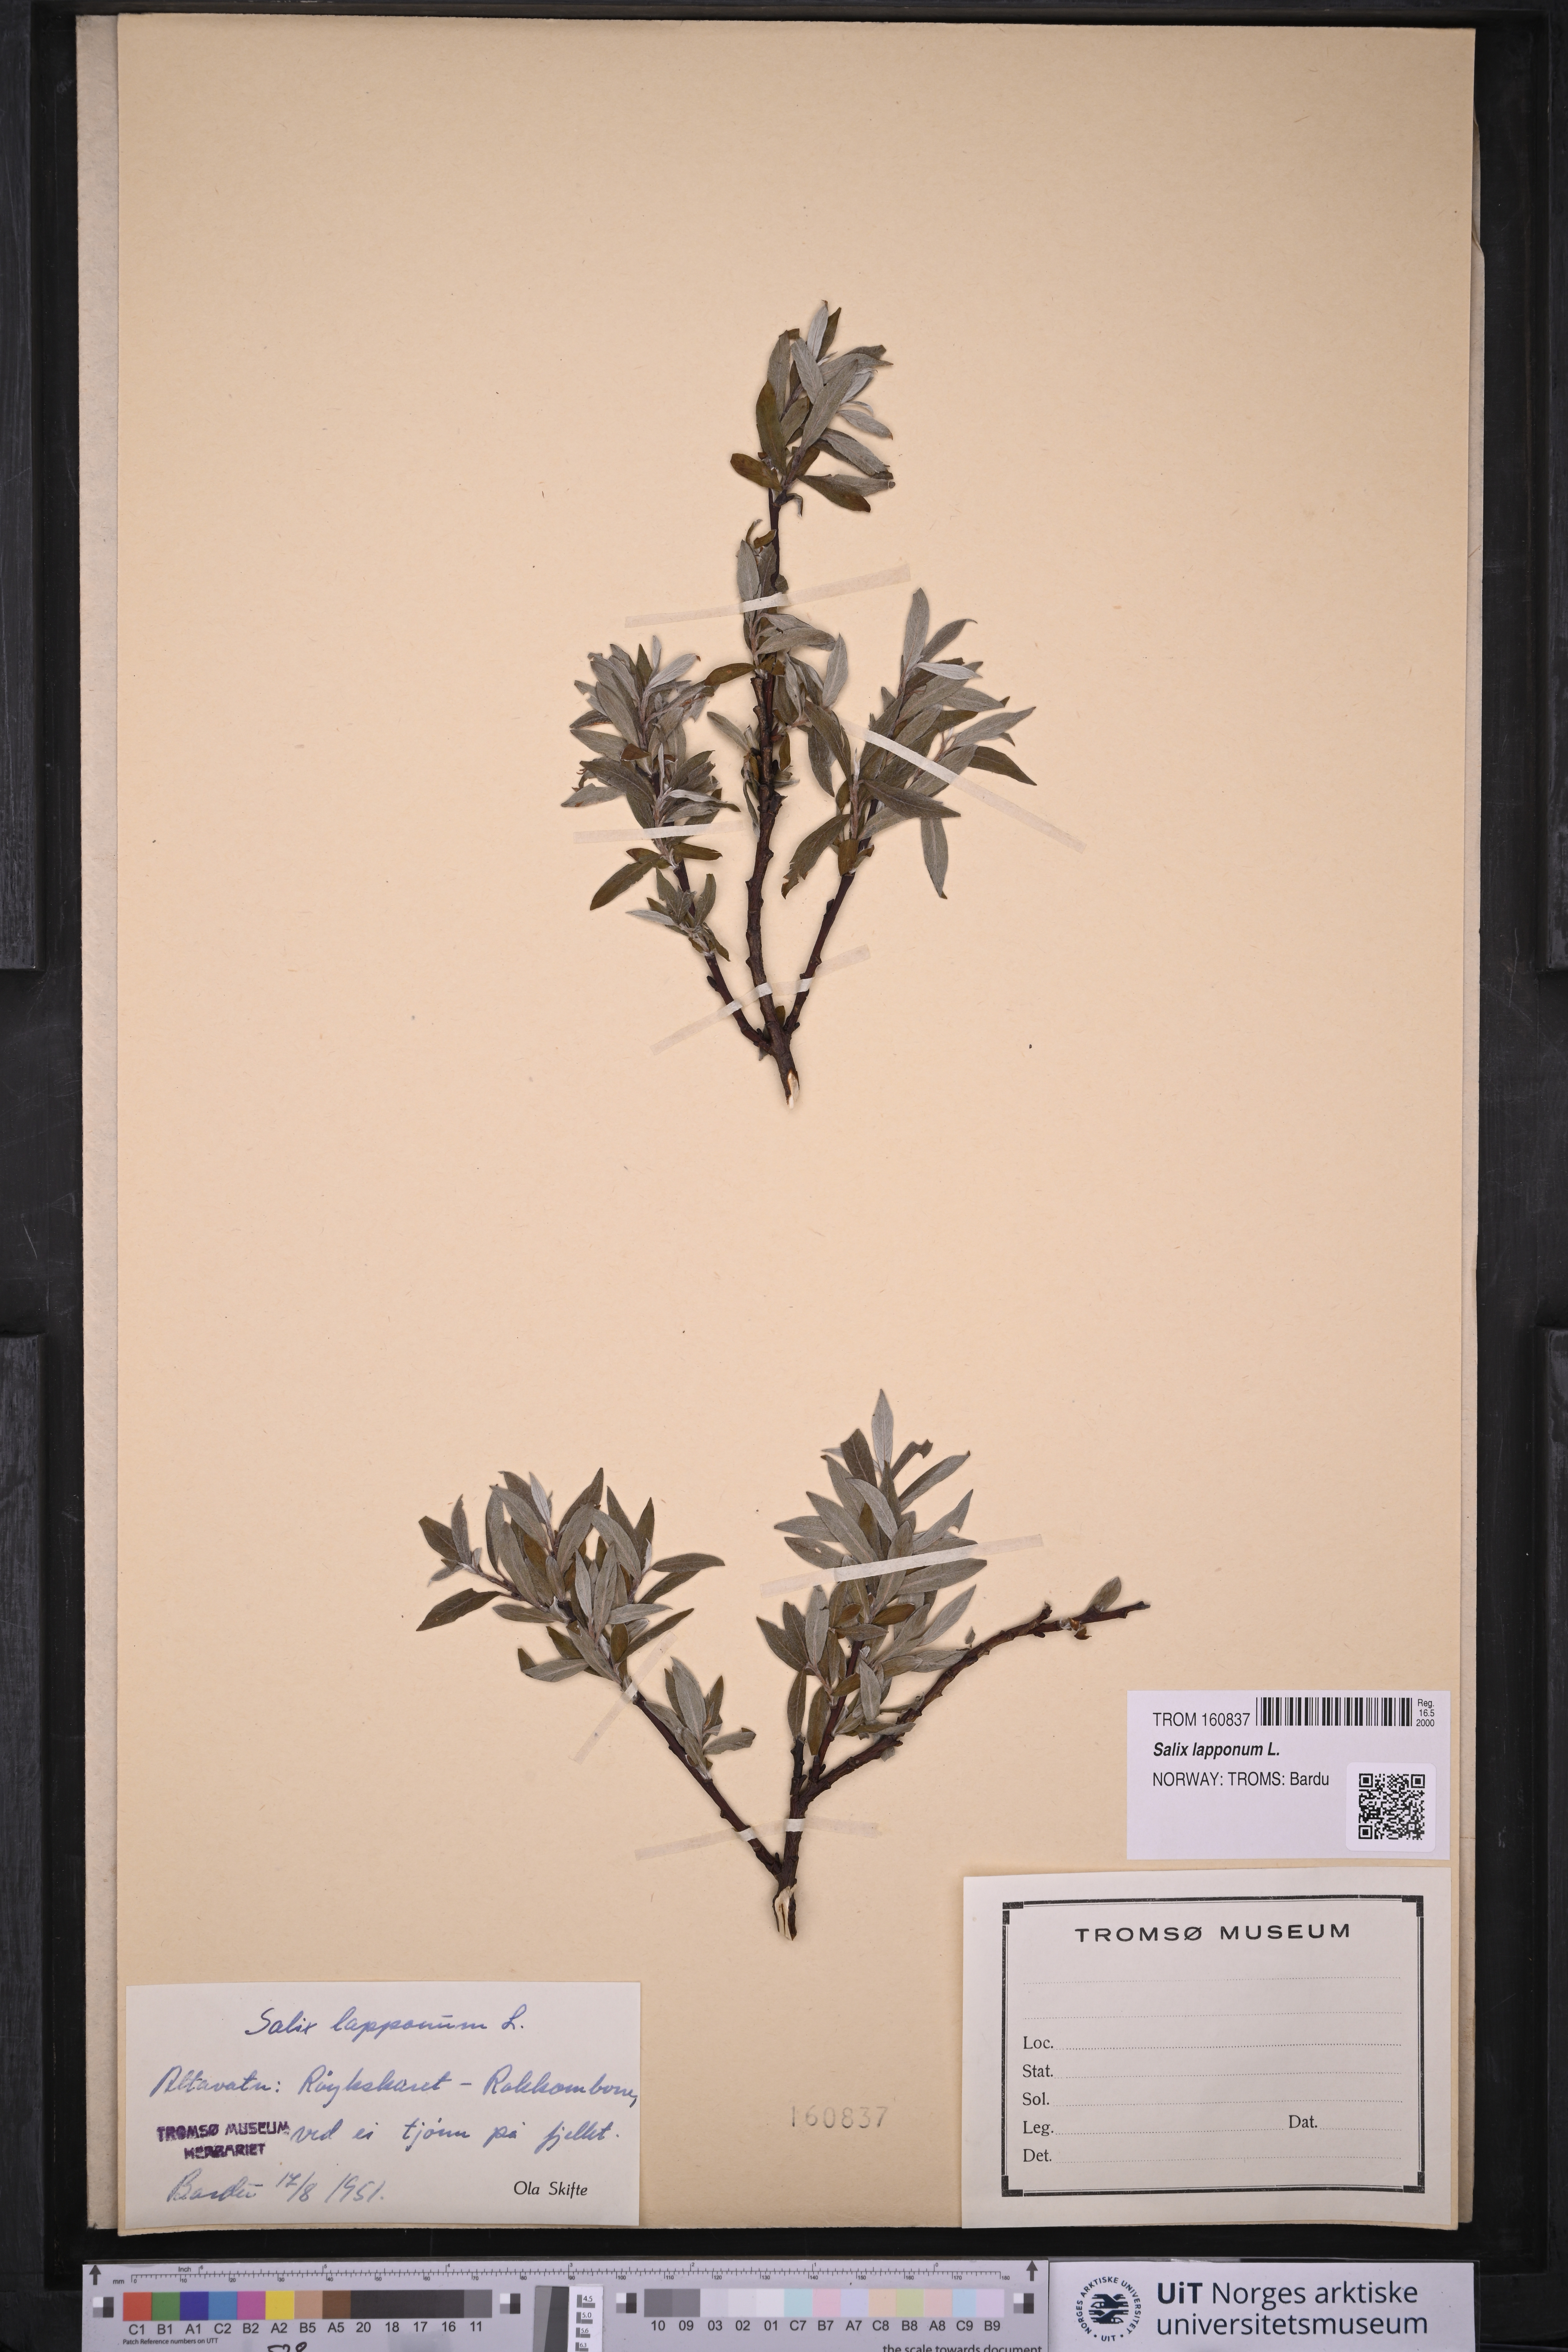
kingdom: Plantae
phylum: Tracheophyta
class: Magnoliopsida
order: Malpighiales
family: Salicaceae
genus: Salix
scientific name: Salix lapponum
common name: Downy willow
